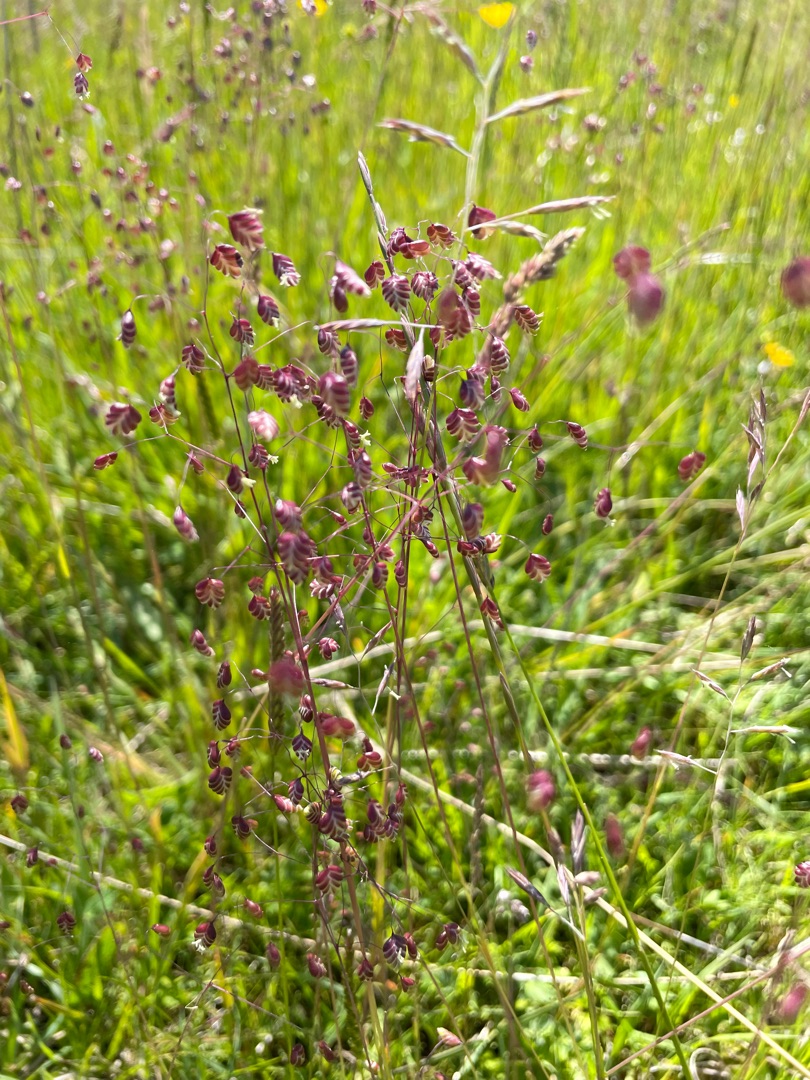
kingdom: Plantae
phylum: Tracheophyta
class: Liliopsida
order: Poales
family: Poaceae
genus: Briza
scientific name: Briza media
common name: Hjertegræs
